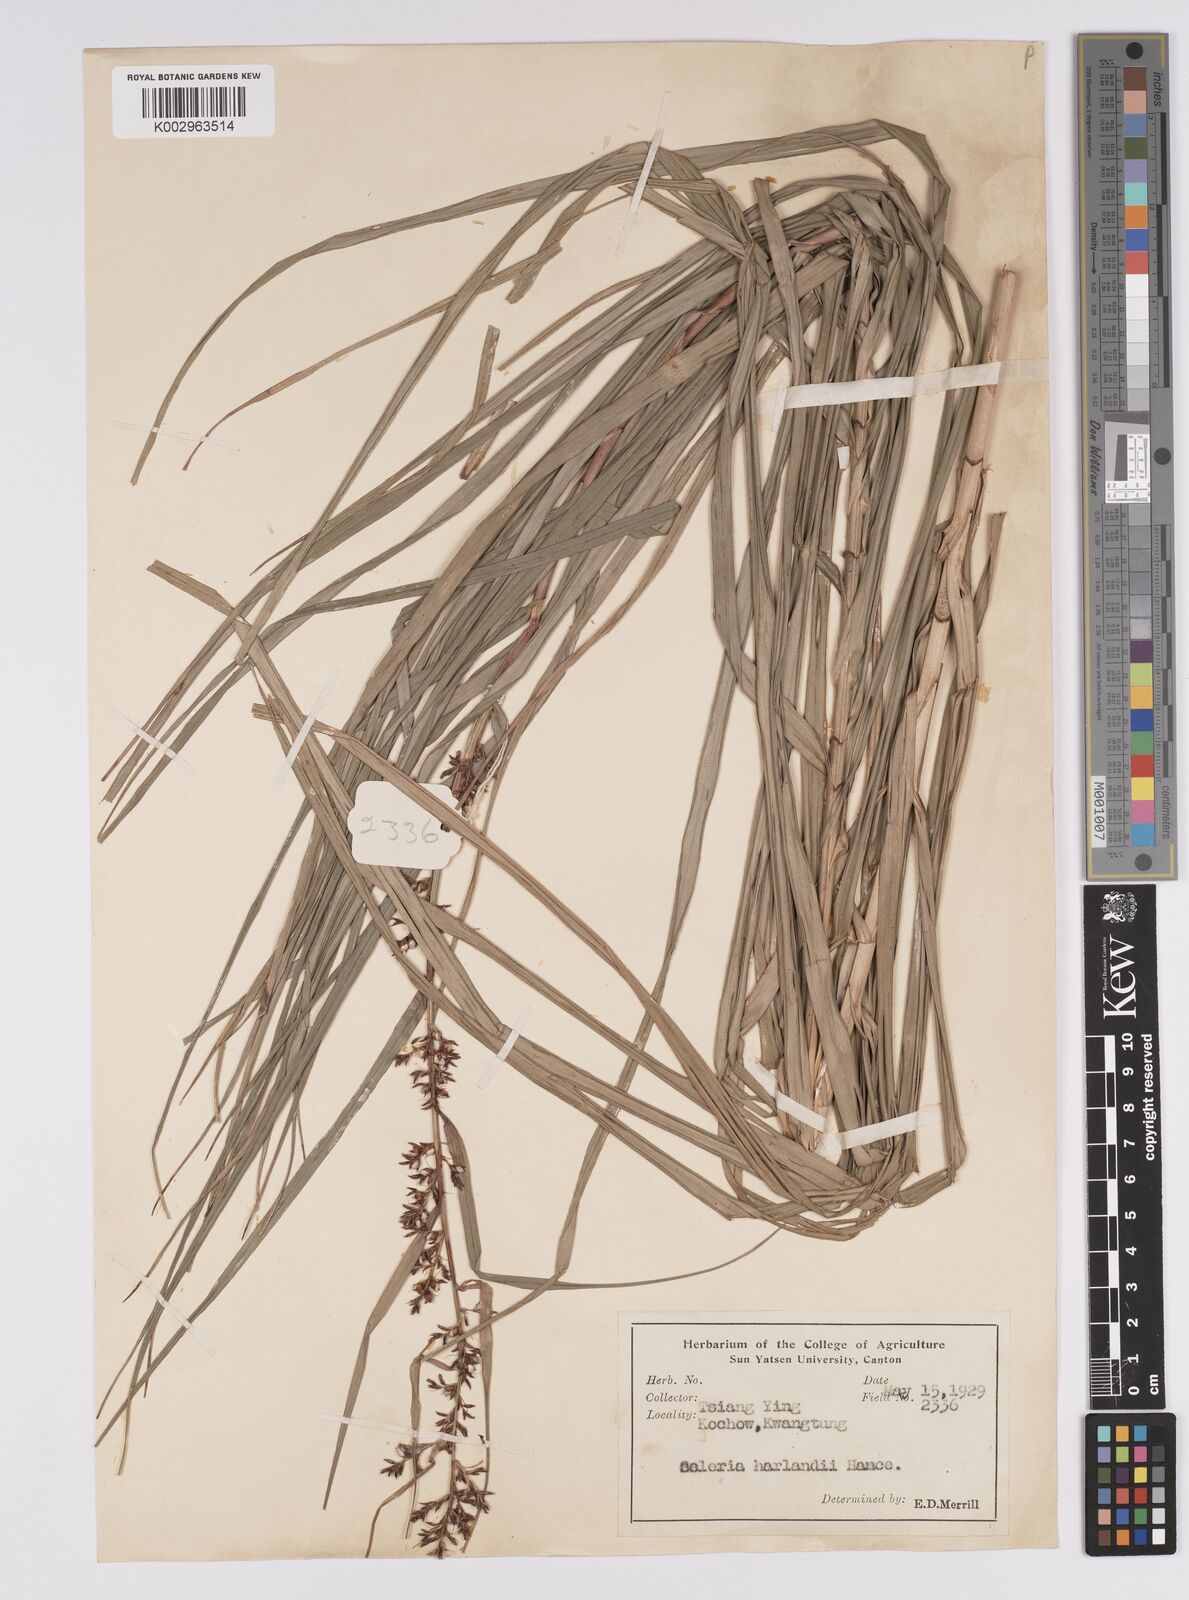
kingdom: Plantae
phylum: Tracheophyta
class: Liliopsida
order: Poales
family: Cyperaceae
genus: Scleria
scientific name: Scleria harlandii
